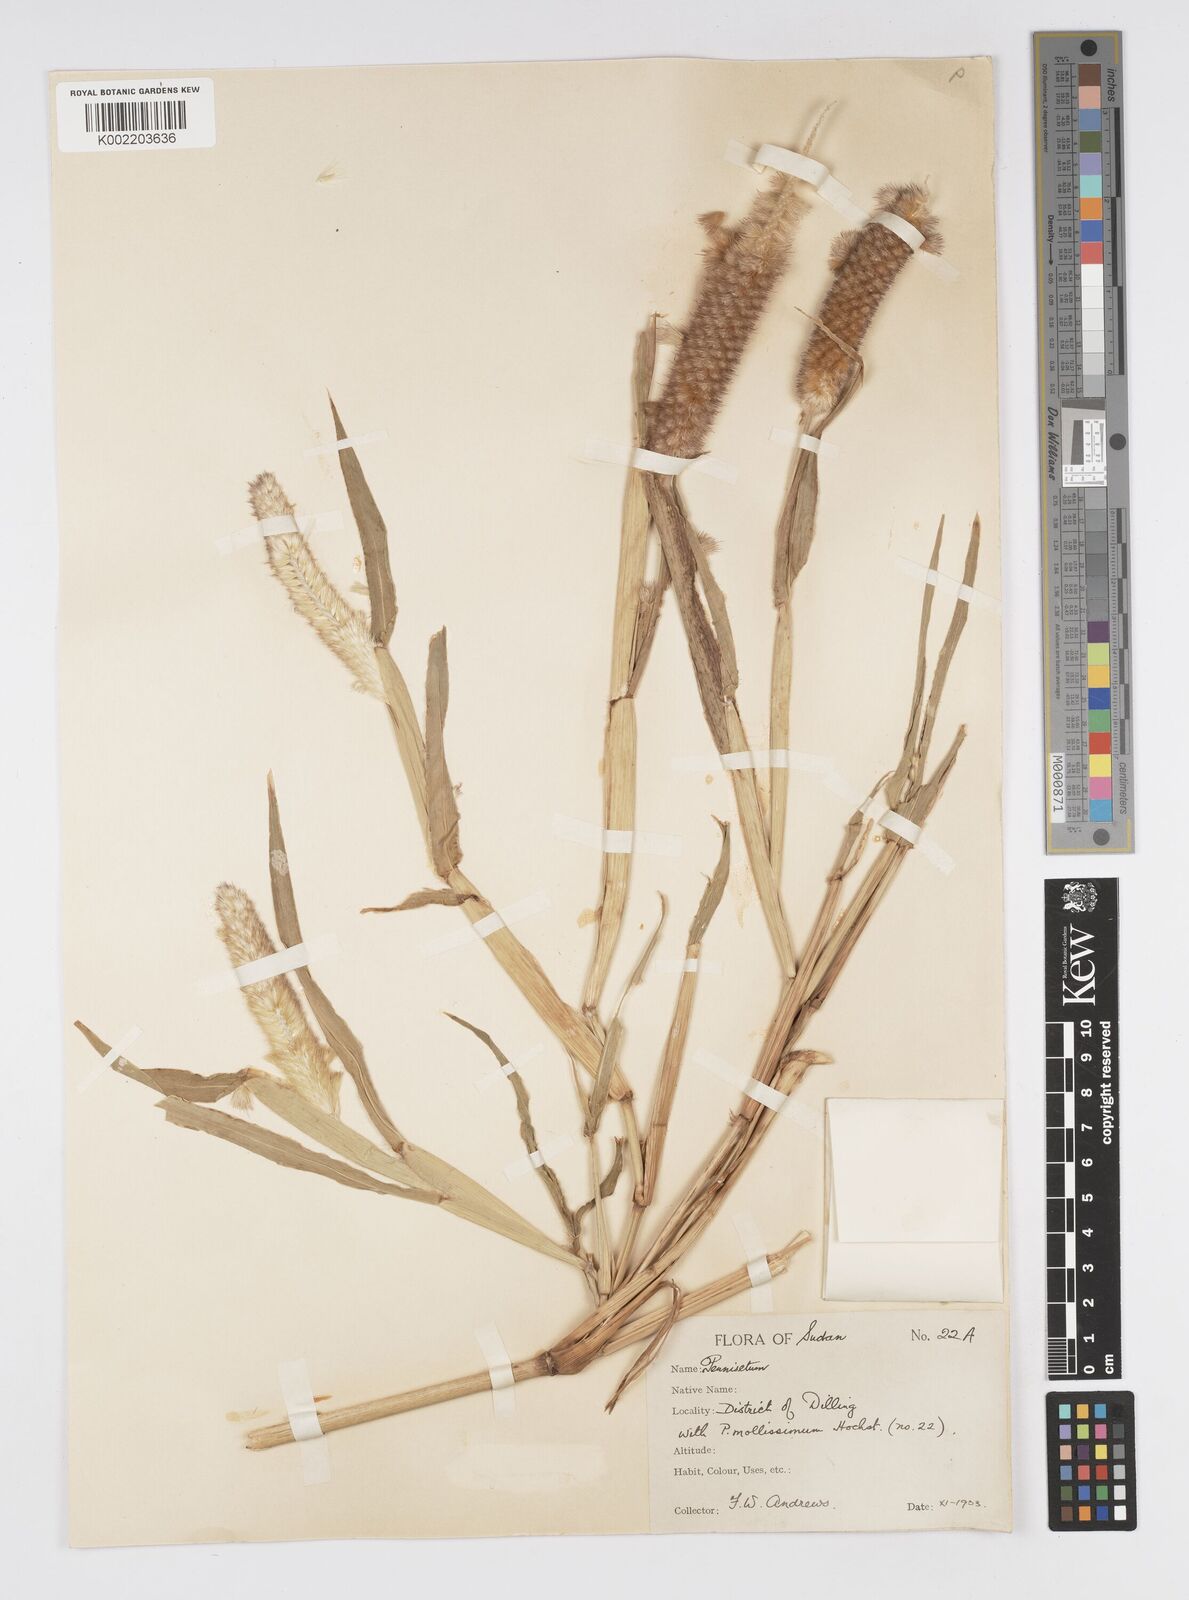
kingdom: Plantae
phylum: Tracheophyta
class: Liliopsida
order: Poales
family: Poaceae
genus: Cenchrus
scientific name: Cenchrus violaceus
